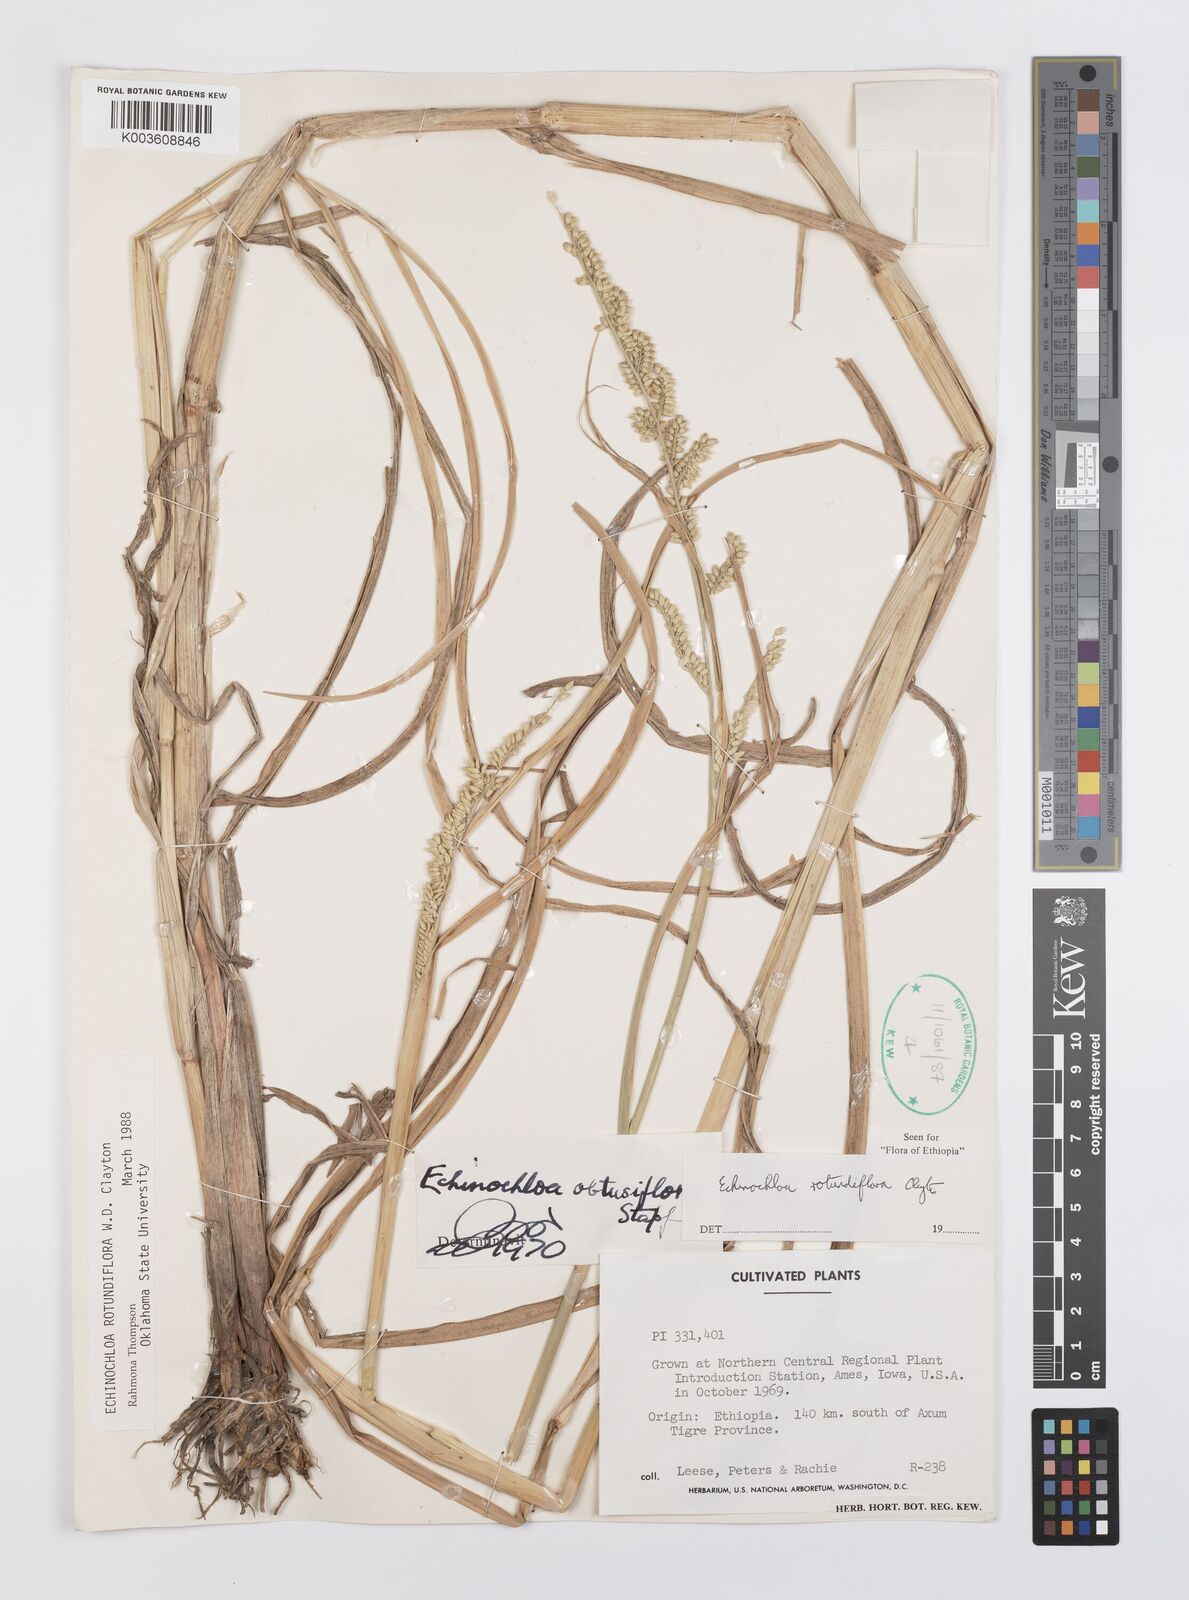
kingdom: Plantae
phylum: Tracheophyta
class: Liliopsida
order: Poales
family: Poaceae
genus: Echinochloa
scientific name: Echinochloa rotundiflora
